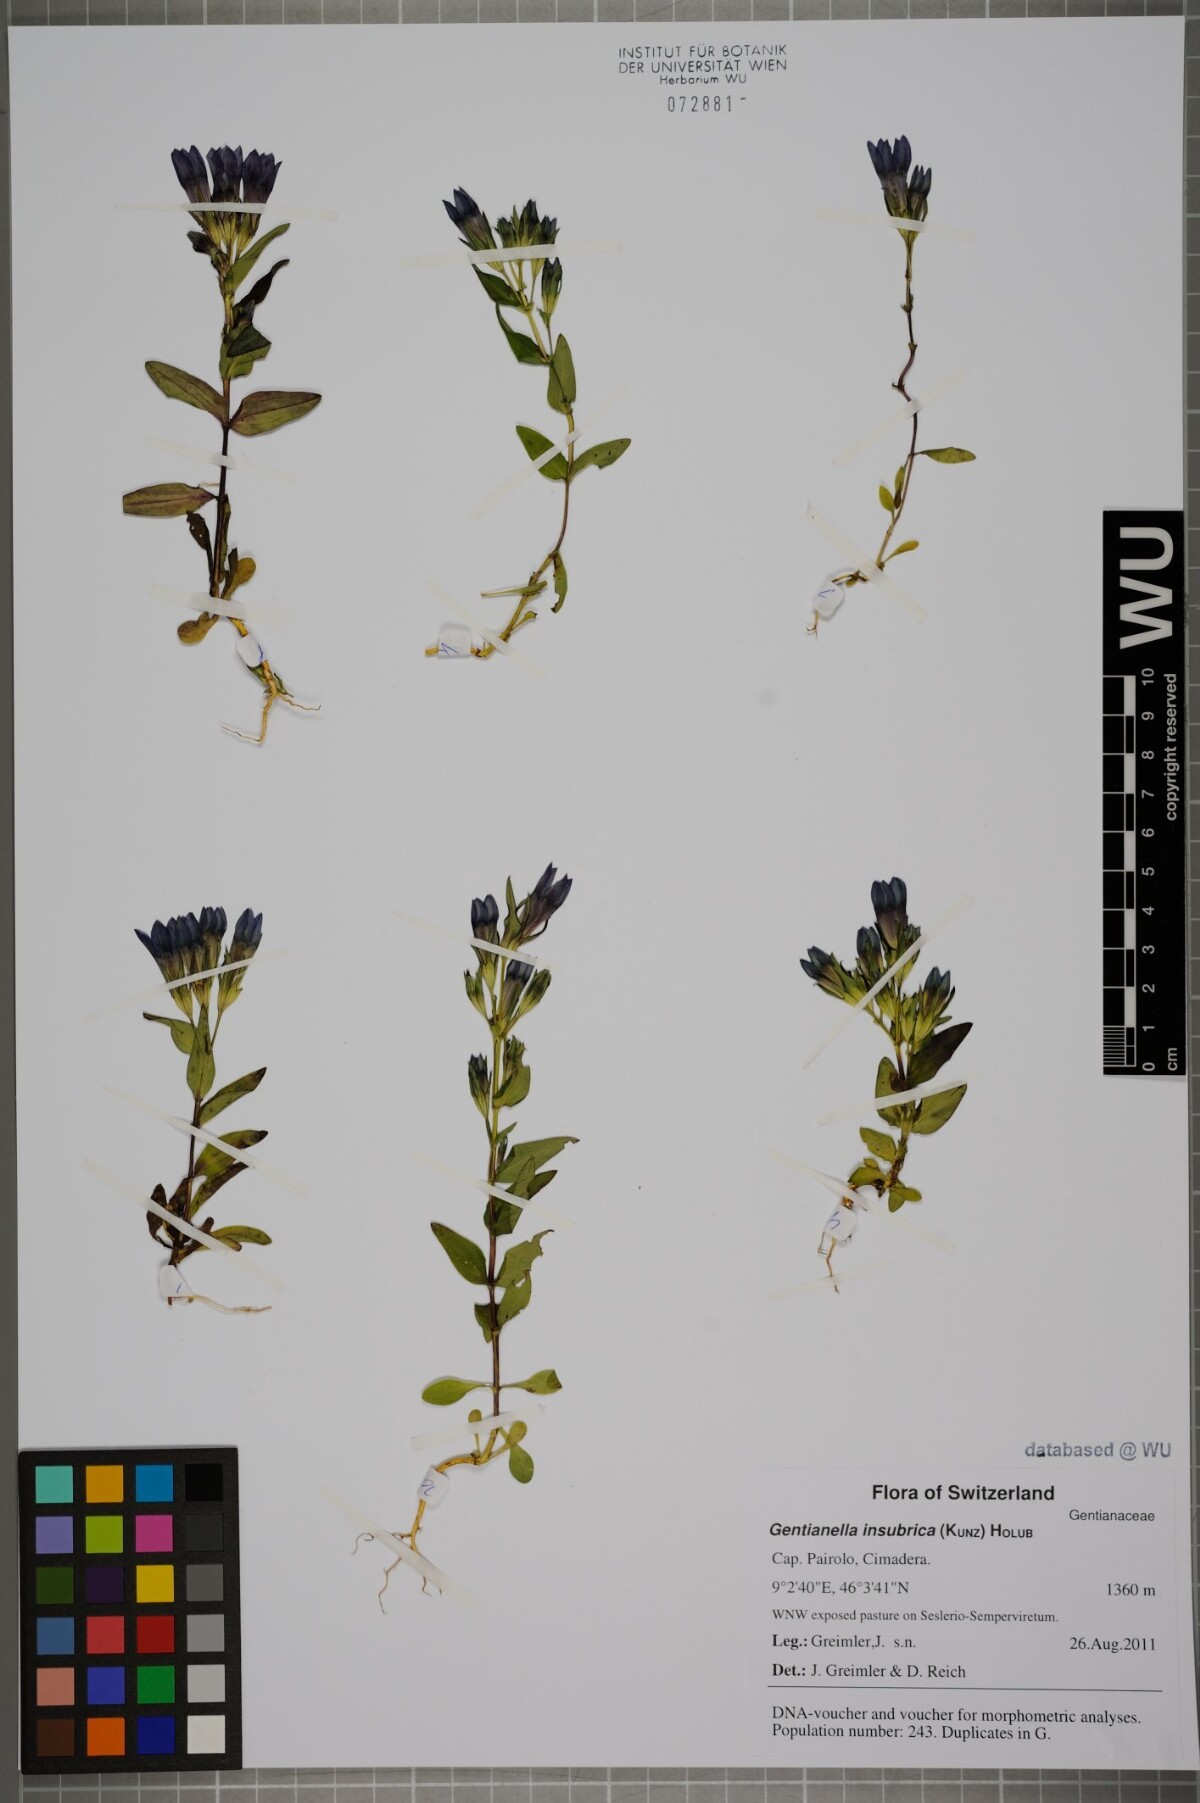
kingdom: Plantae
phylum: Tracheophyta
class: Magnoliopsida
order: Gentianales
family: Gentianaceae
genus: Gentianella
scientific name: Gentianella insubrica
